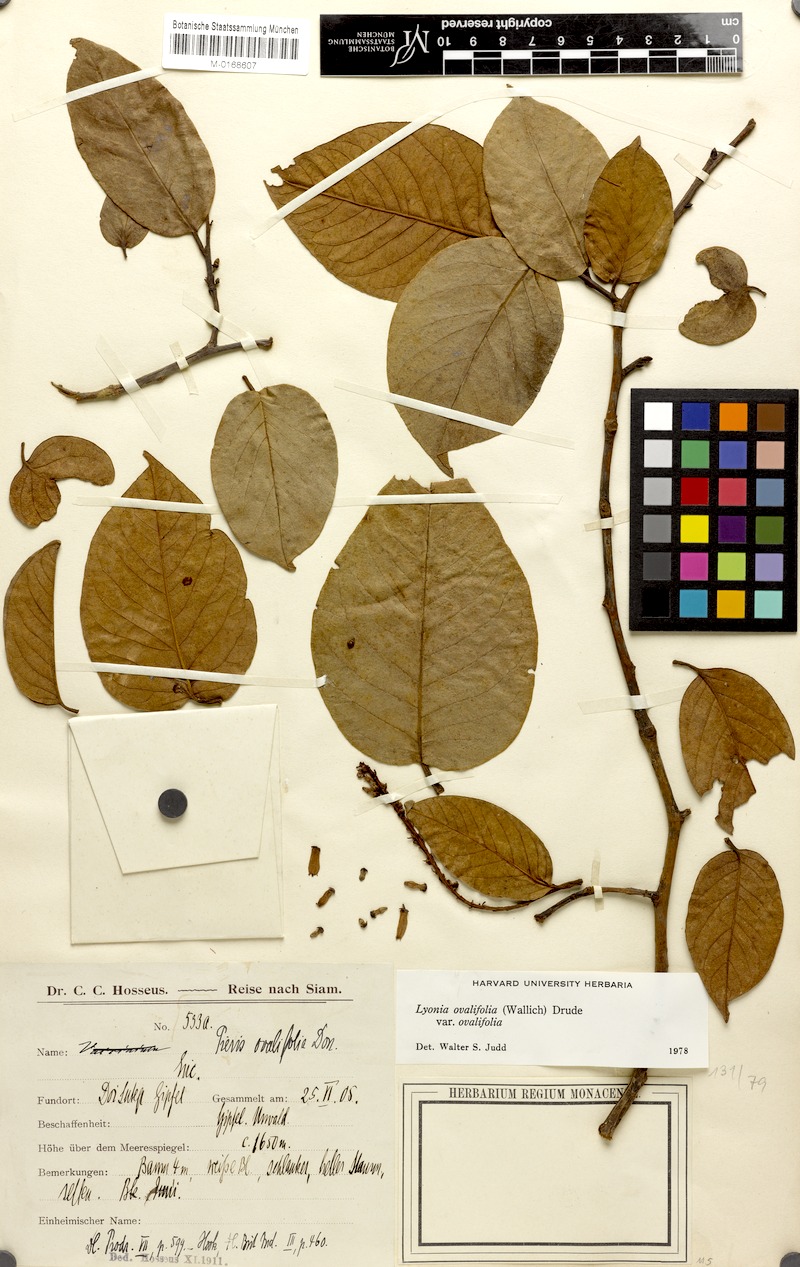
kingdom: Plantae
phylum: Tracheophyta
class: Magnoliopsida
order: Ericales
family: Ericaceae
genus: Lyonia
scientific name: Lyonia ovalifolia
